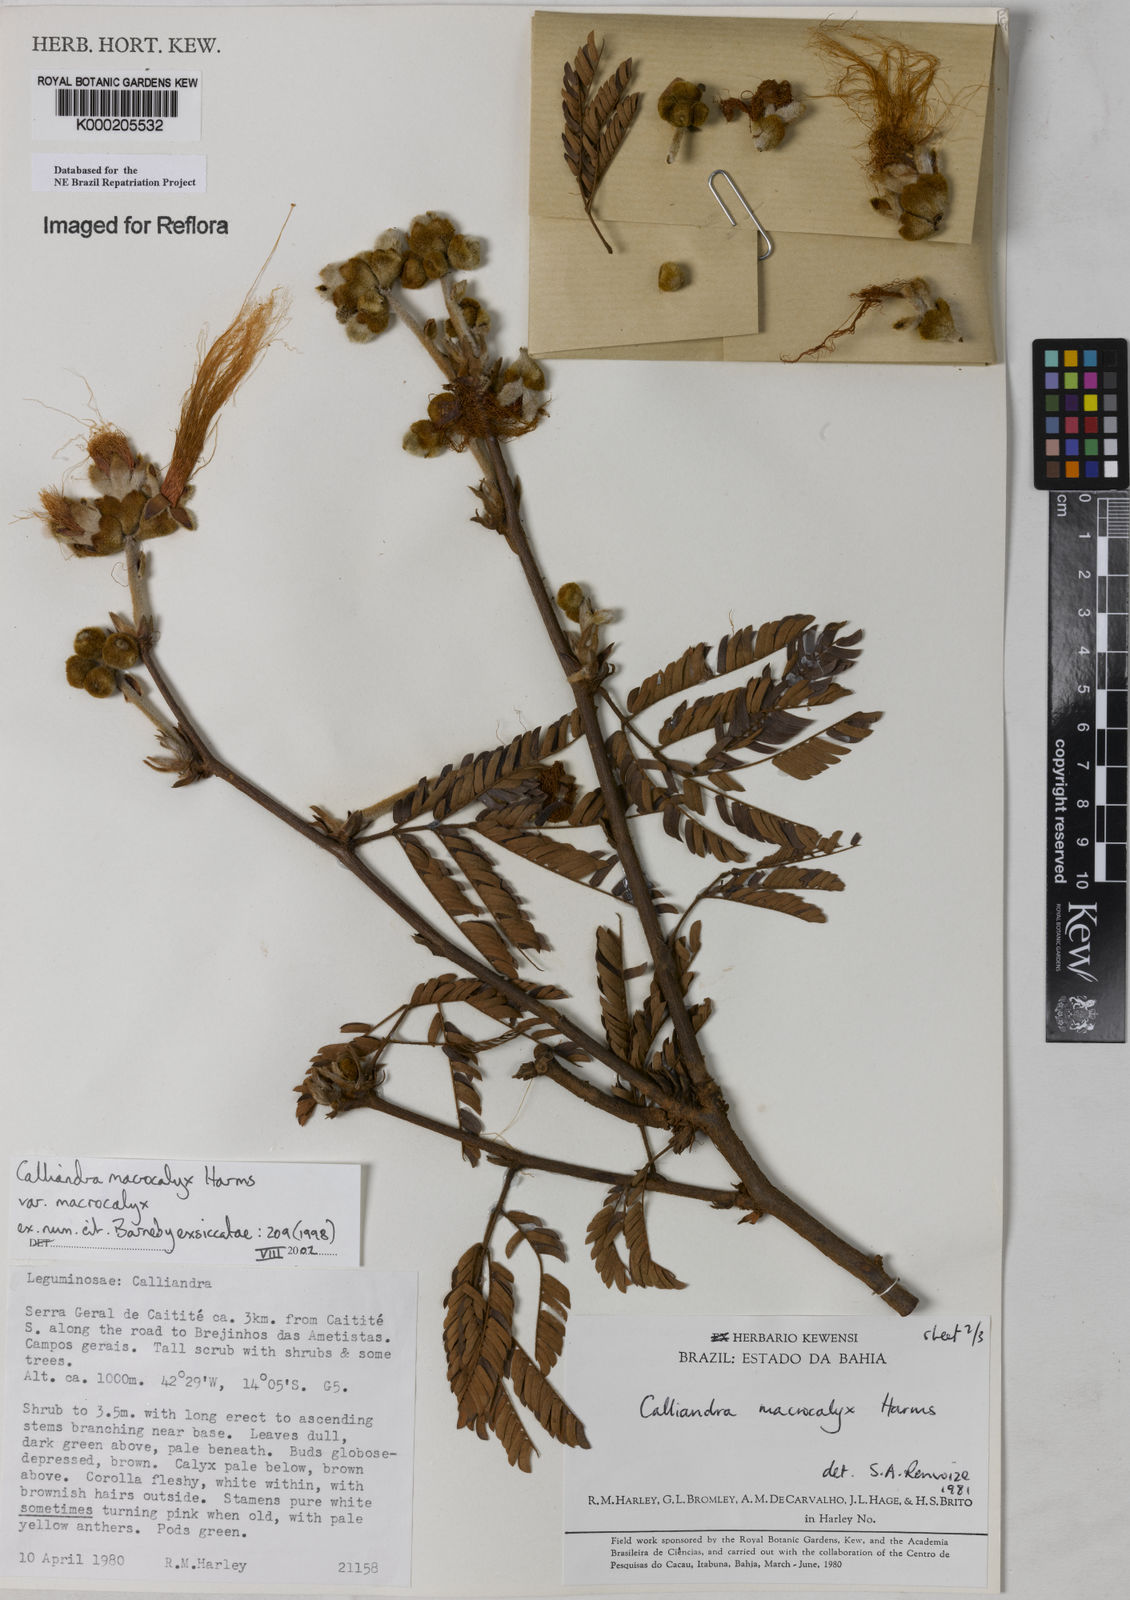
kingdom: Plantae
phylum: Tracheophyta
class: Magnoliopsida
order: Fabales
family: Fabaceae
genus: Calliandra
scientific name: Calliandra macrocalyx
